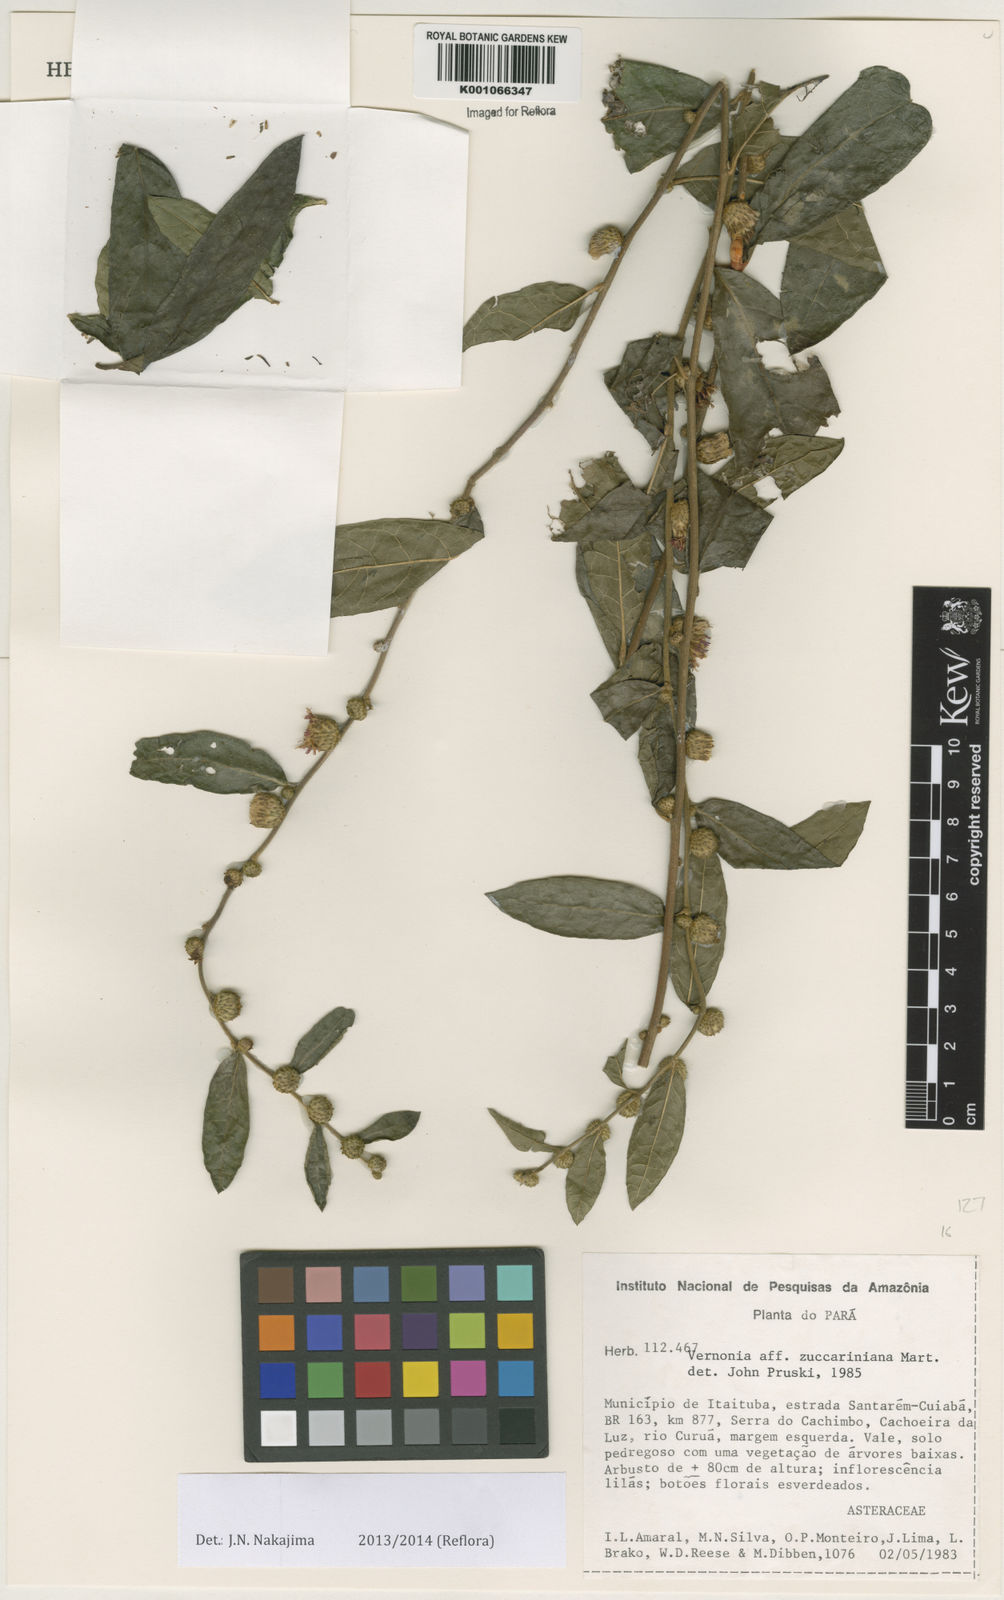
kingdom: Plantae
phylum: Tracheophyta
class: Magnoliopsida
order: Asterales
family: Asteraceae
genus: Lessingianthus
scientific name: Lessingianthus zuccarinianus
